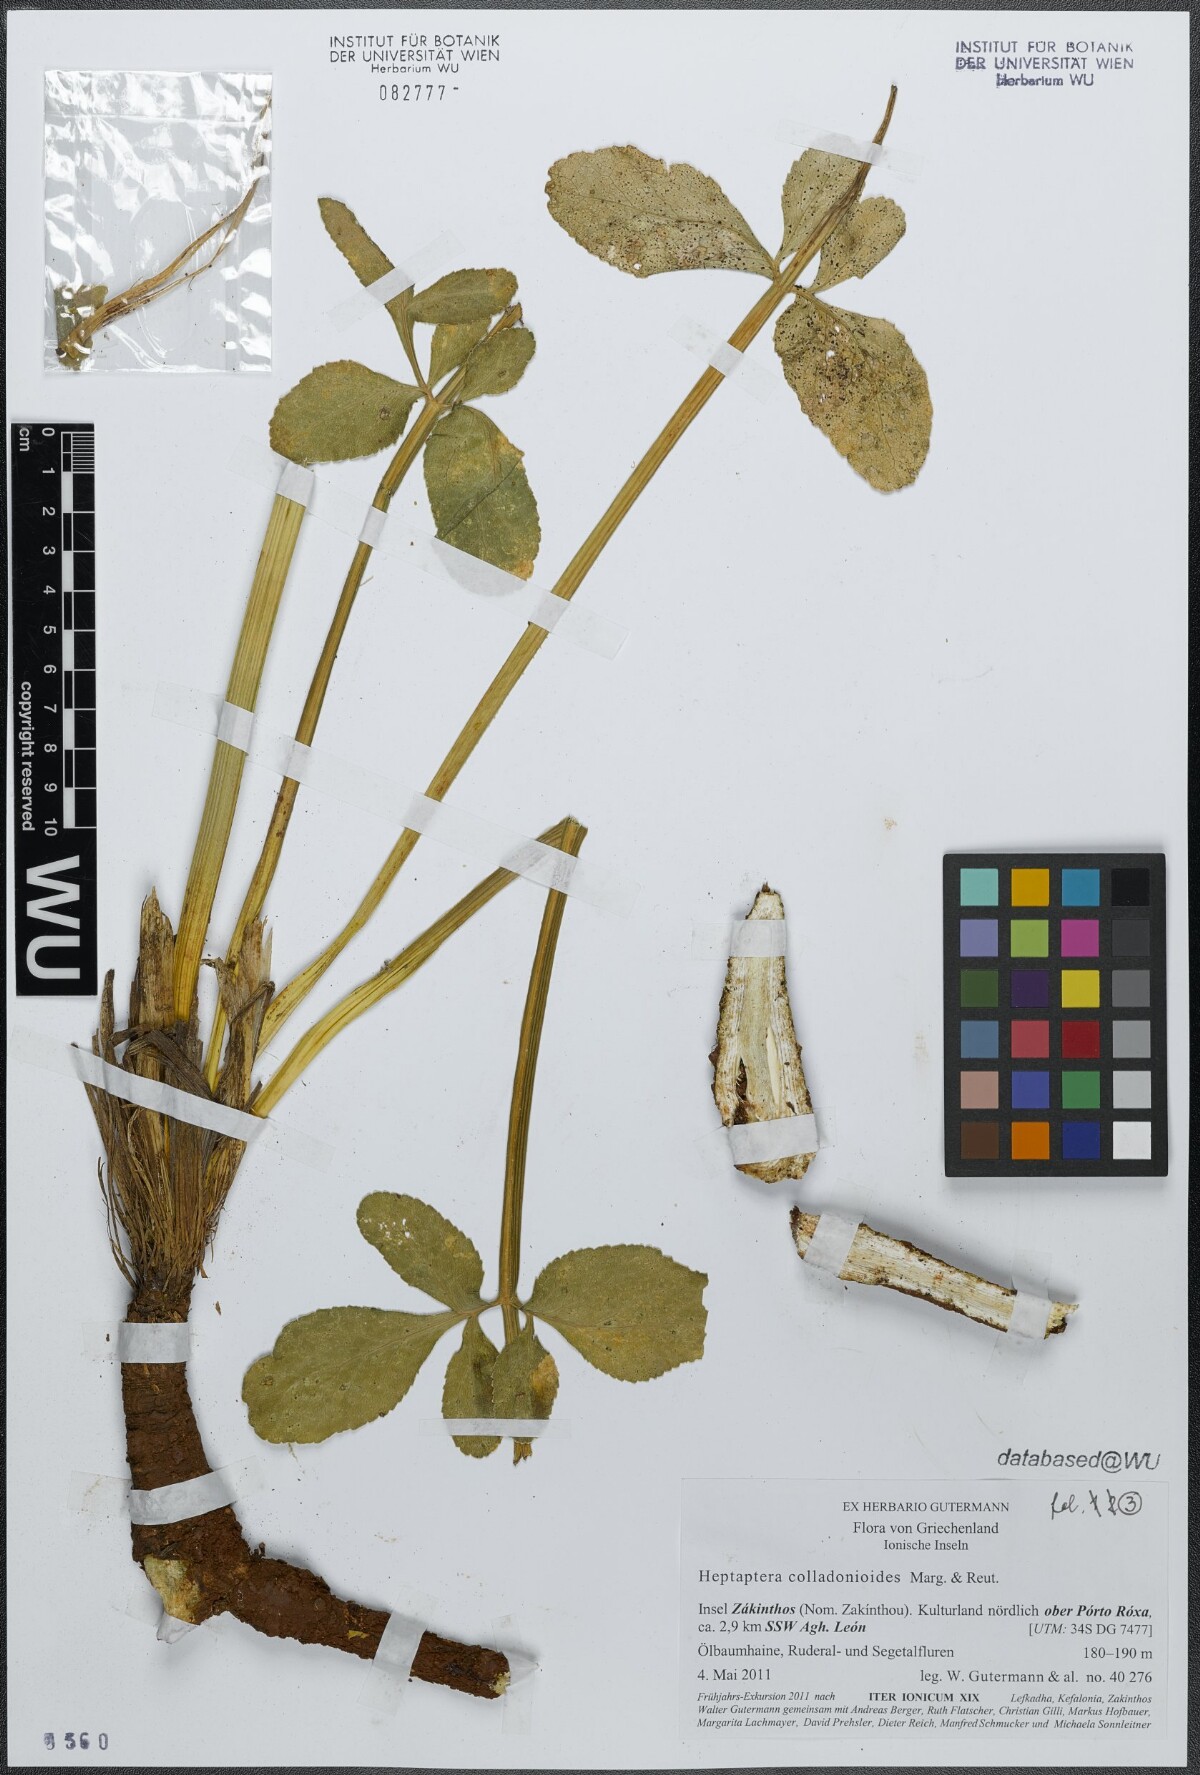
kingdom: Plantae
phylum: Tracheophyta
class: Magnoliopsida
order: Apiales
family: Apiaceae
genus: Heptaptera
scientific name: Heptaptera colladonioides
